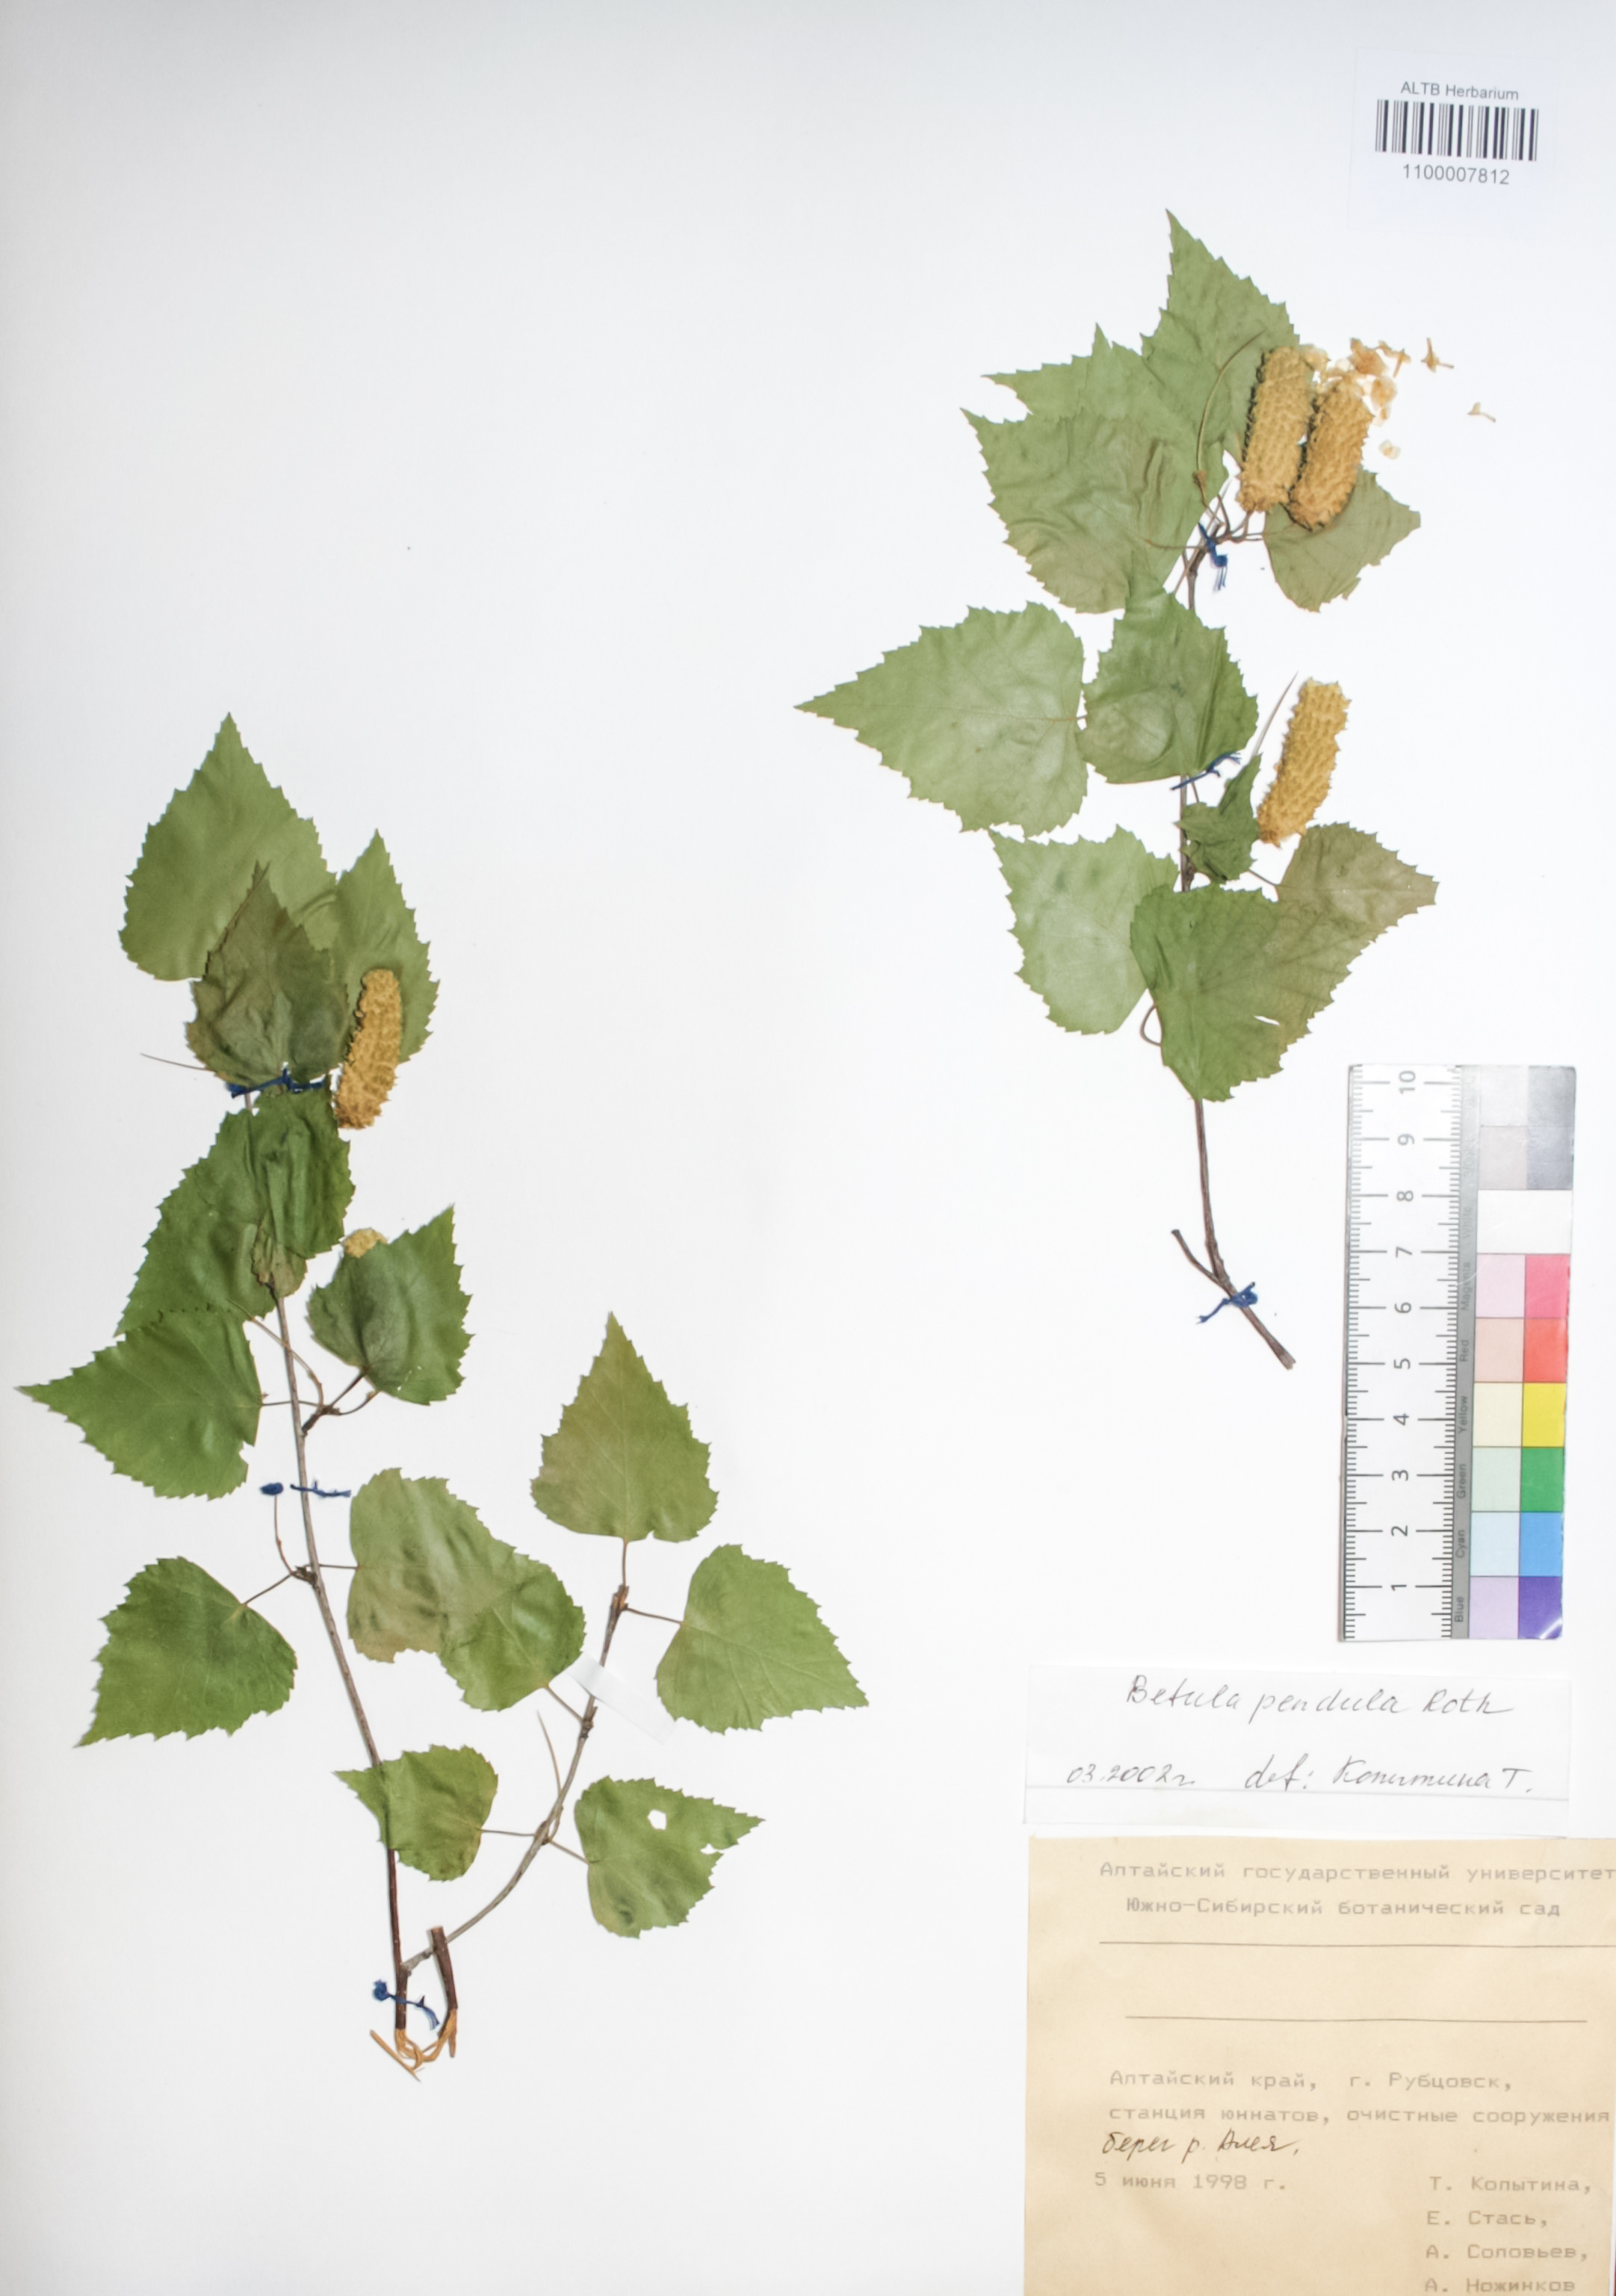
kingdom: Plantae
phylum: Tracheophyta
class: Magnoliopsida
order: Fagales
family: Betulaceae
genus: Betula
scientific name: Betula pendula
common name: Silver birch
